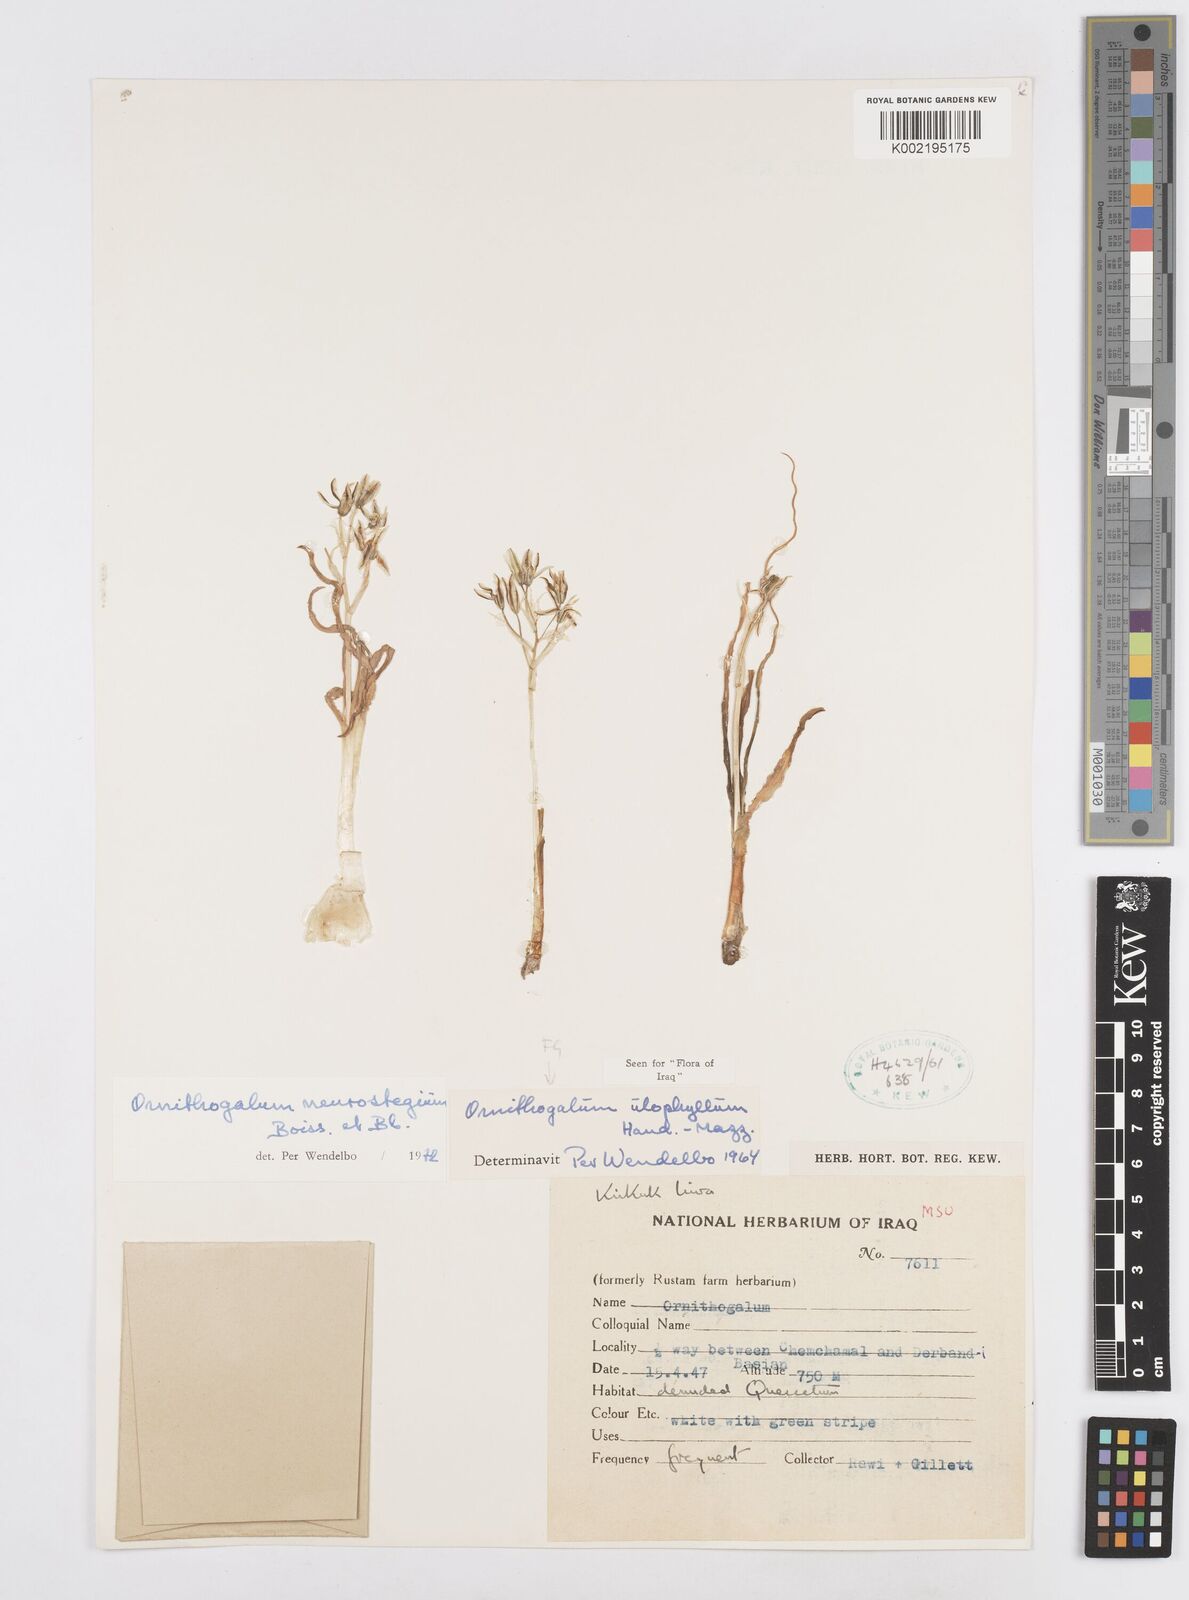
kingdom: Plantae
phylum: Tracheophyta
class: Liliopsida
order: Asparagales
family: Asparagaceae
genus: Ornithogalum
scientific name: Ornithogalum neurostegium
